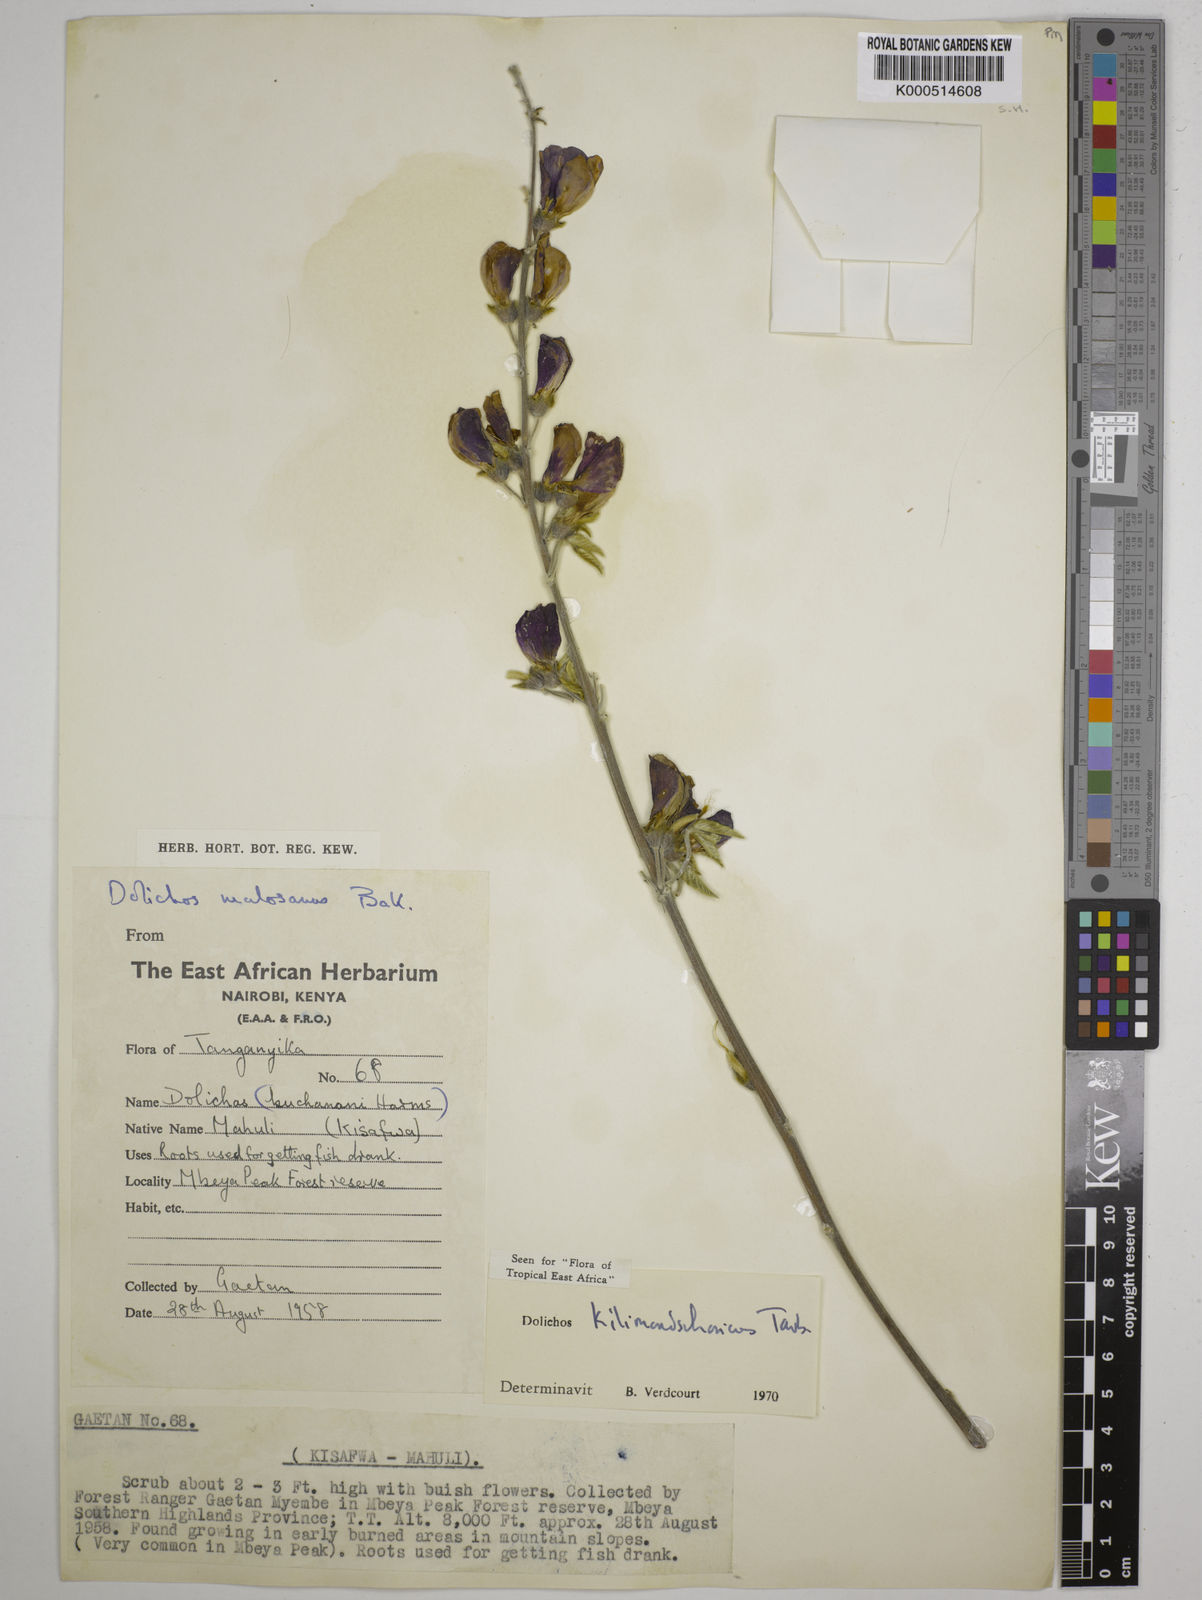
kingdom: Plantae
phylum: Tracheophyta
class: Magnoliopsida
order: Fabales
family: Fabaceae
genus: Dolichos
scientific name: Dolichos kilimandscharicus
